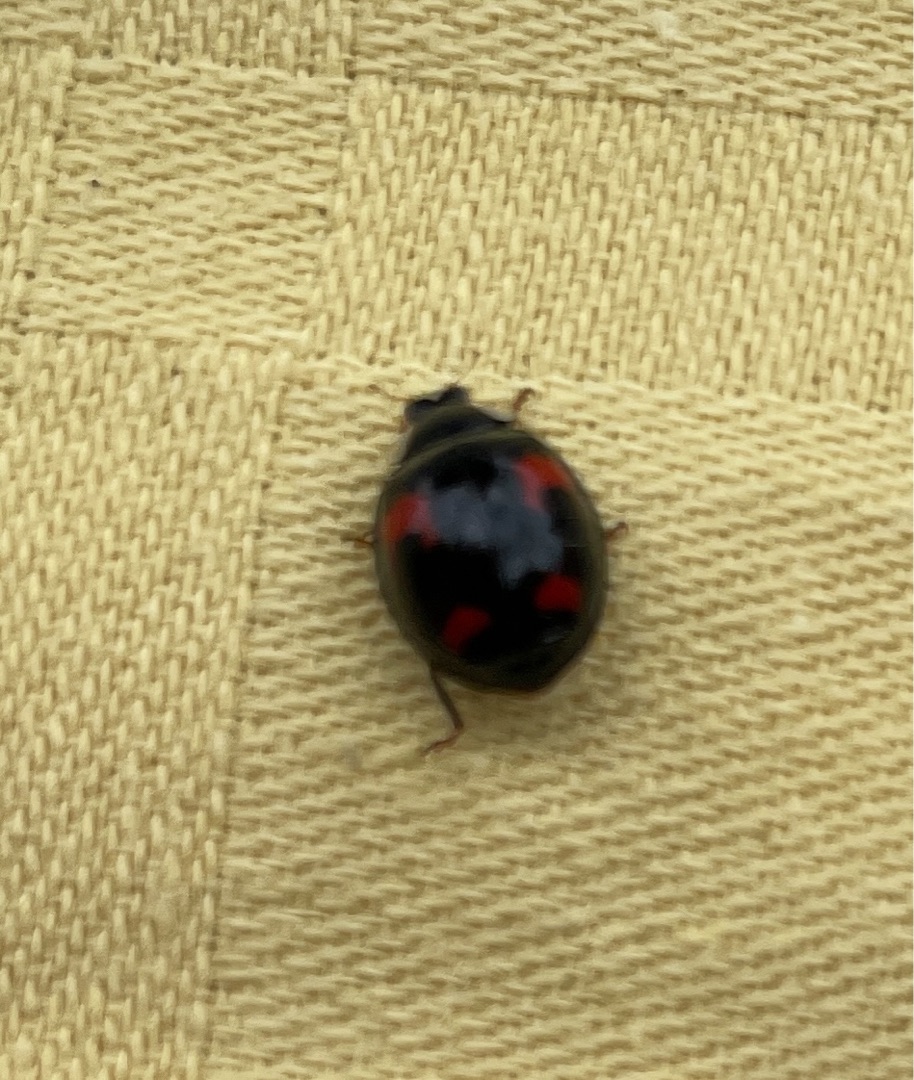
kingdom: Animalia
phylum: Arthropoda
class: Insecta
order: Coleoptera
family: Coccinellidae
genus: Harmonia
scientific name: Harmonia axyridis
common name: Harlekinmariehøne
